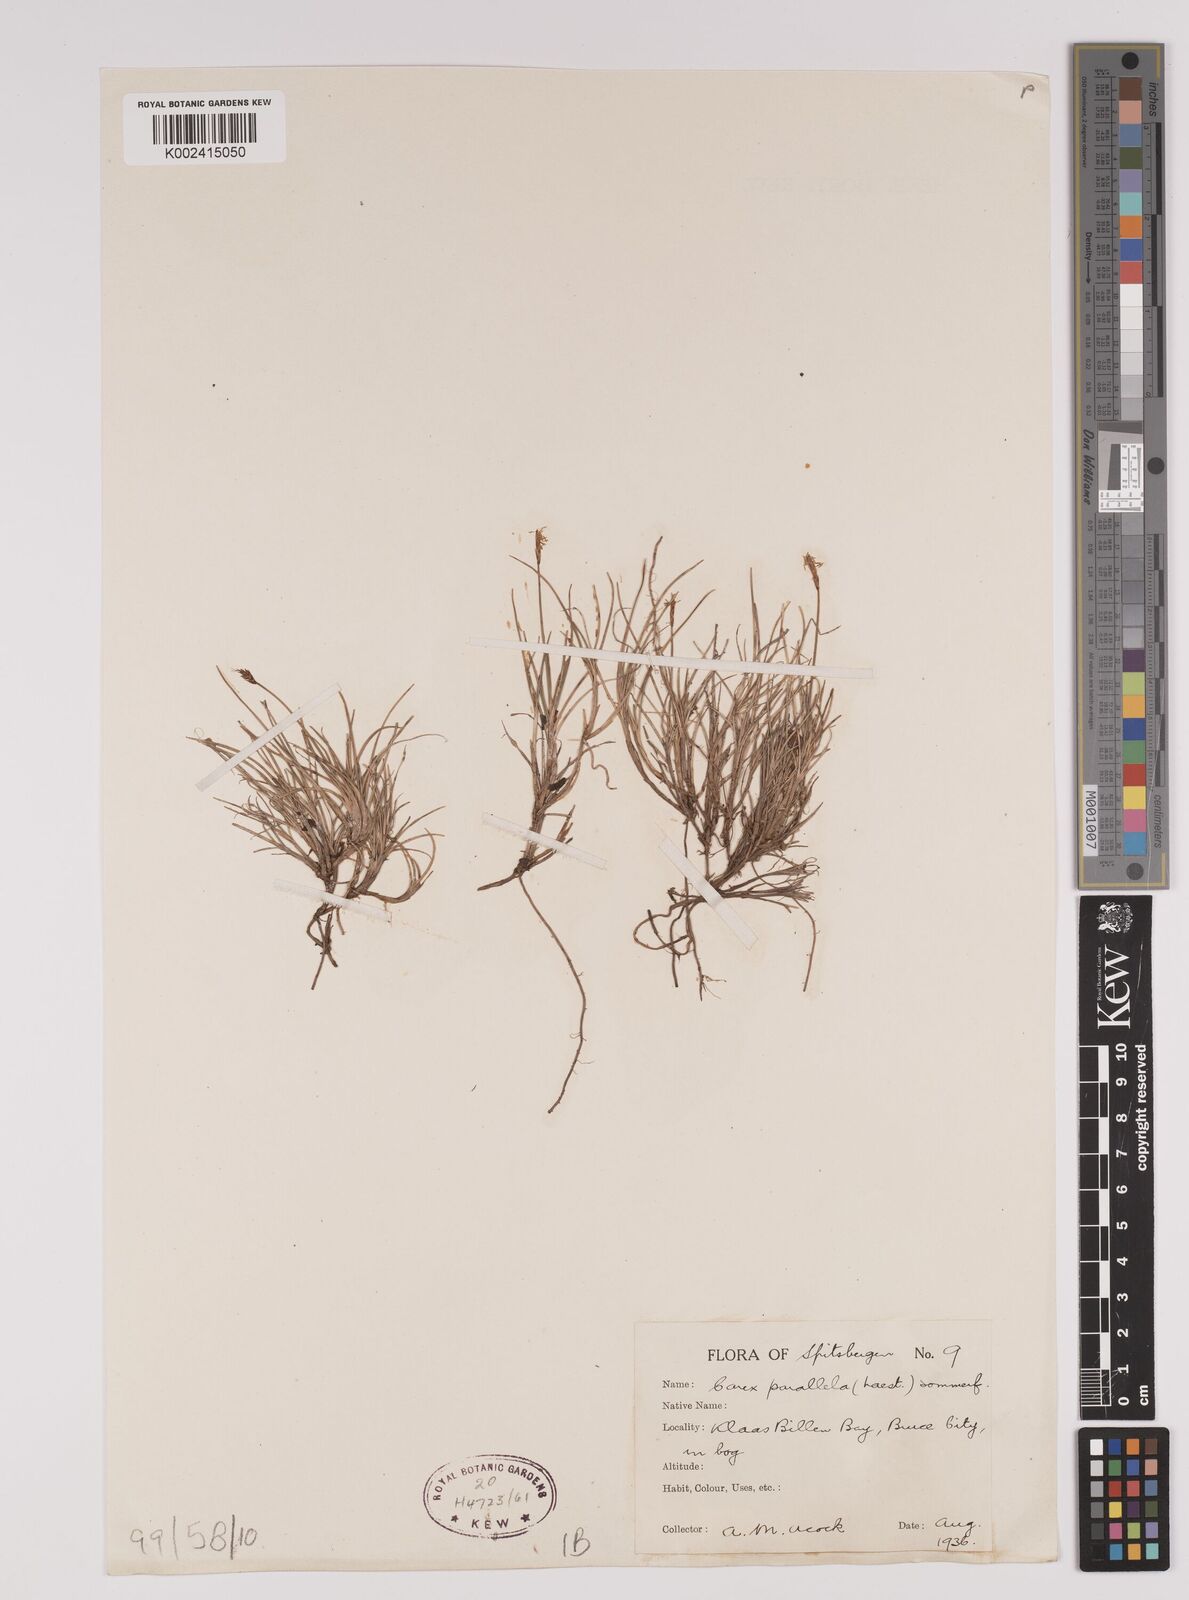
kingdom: Plantae
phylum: Tracheophyta
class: Liliopsida
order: Poales
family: Cyperaceae
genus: Carex
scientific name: Carex parallela
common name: Parallel sedge
